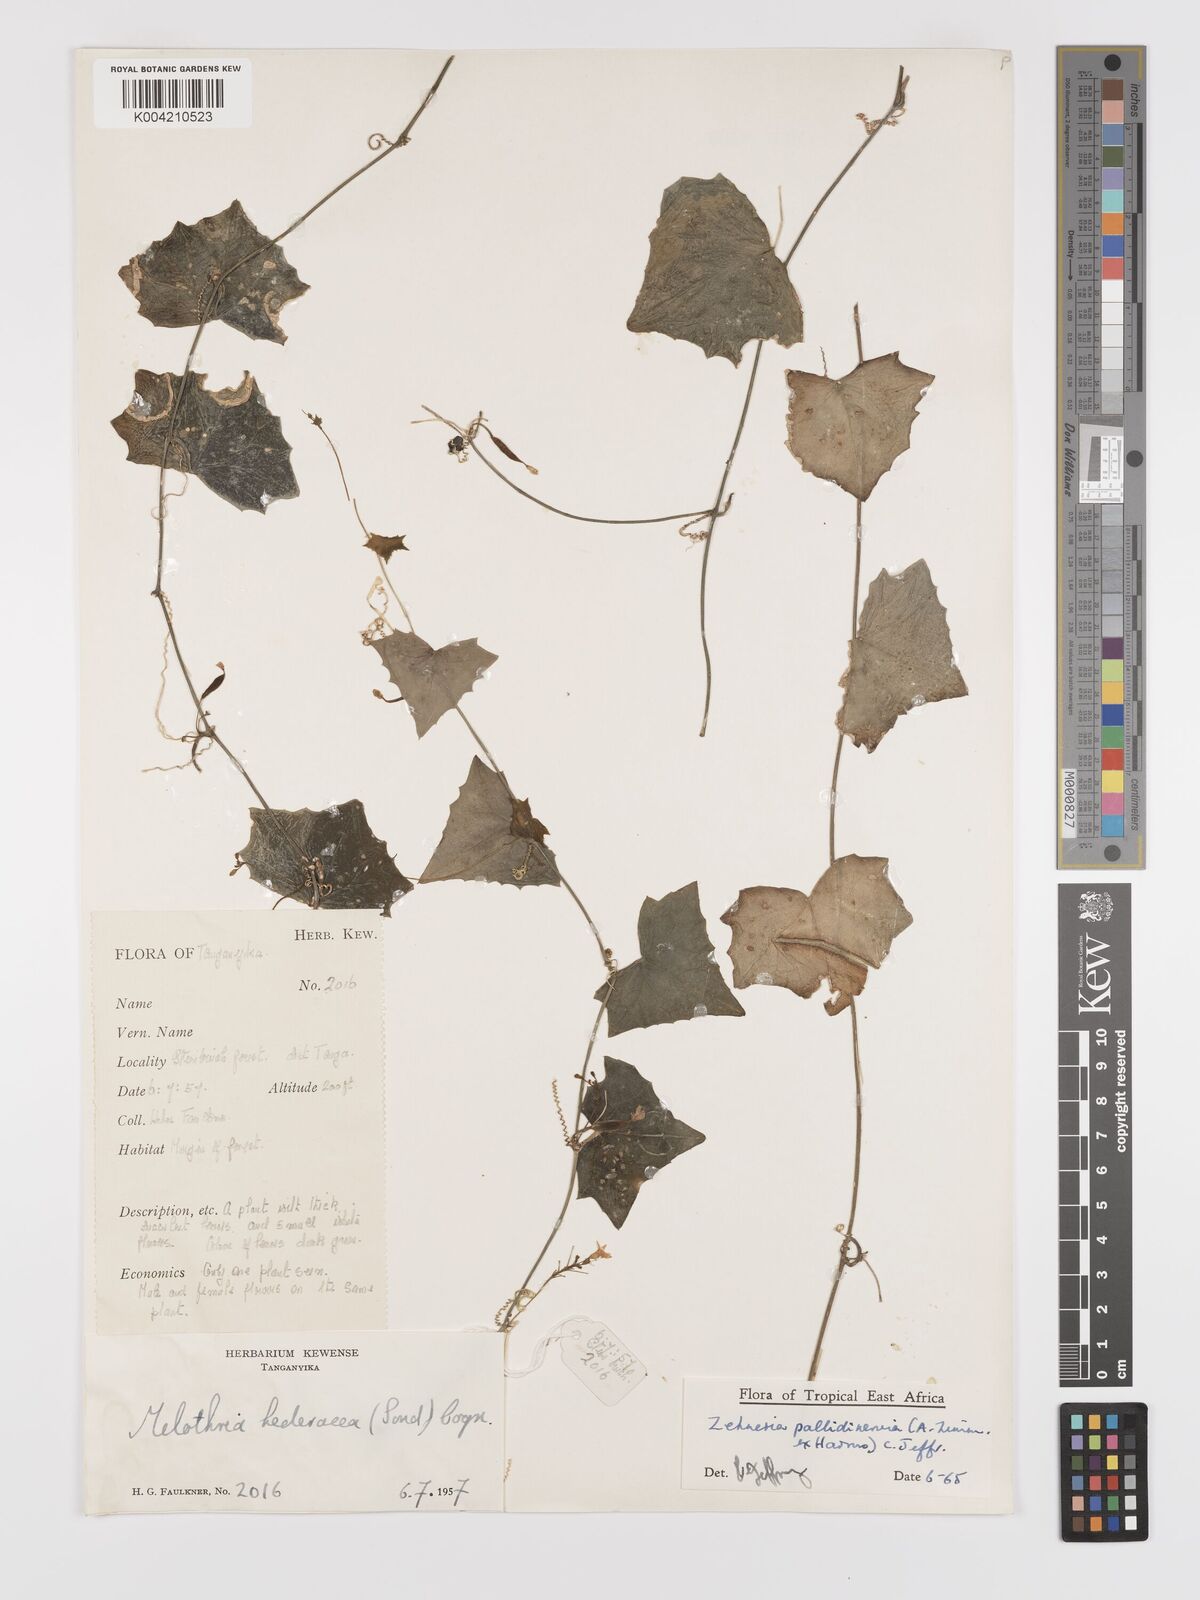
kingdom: Plantae
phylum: Tracheophyta
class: Magnoliopsida
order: Cucurbitales
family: Cucurbitaceae
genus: Zehneria
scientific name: Zehneria pallidinervia
